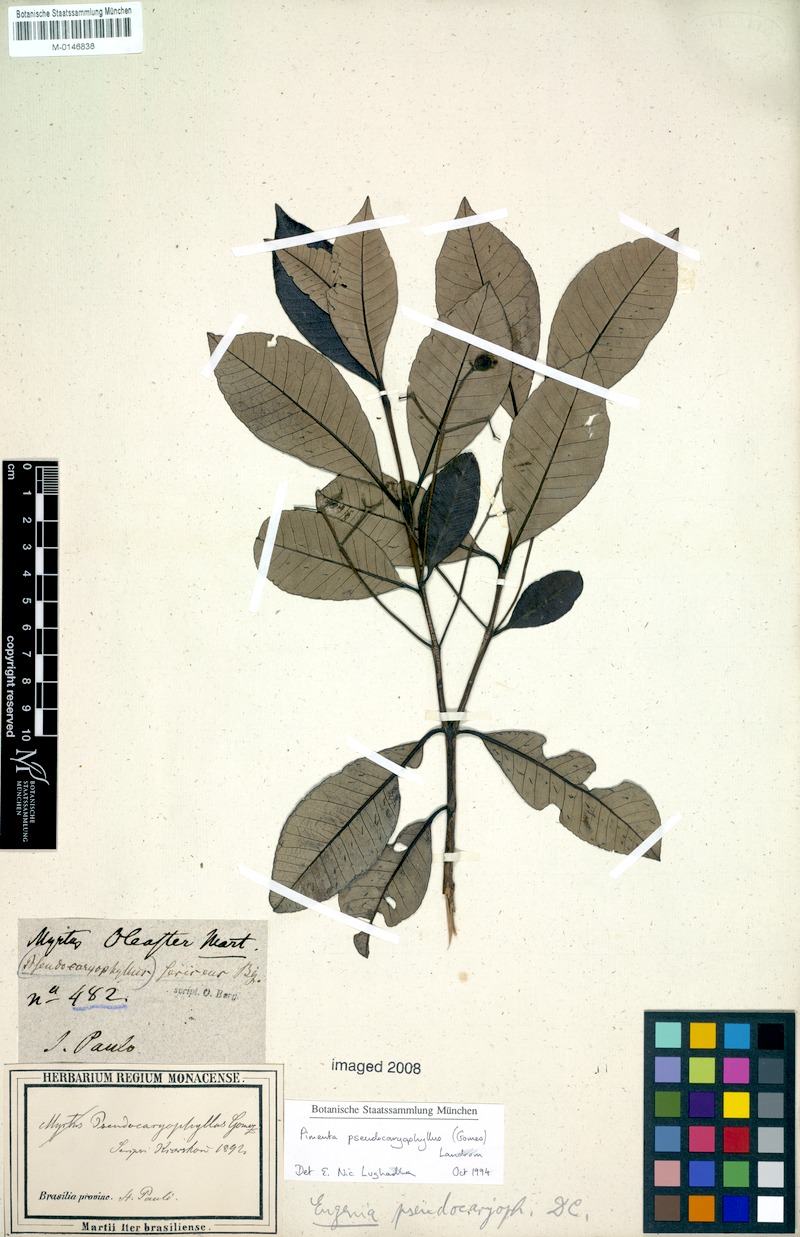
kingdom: Plantae
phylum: Tracheophyta
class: Magnoliopsida
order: Myrtales
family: Myrtaceae
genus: Pimenta
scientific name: Pimenta pseudocaryophyllus
